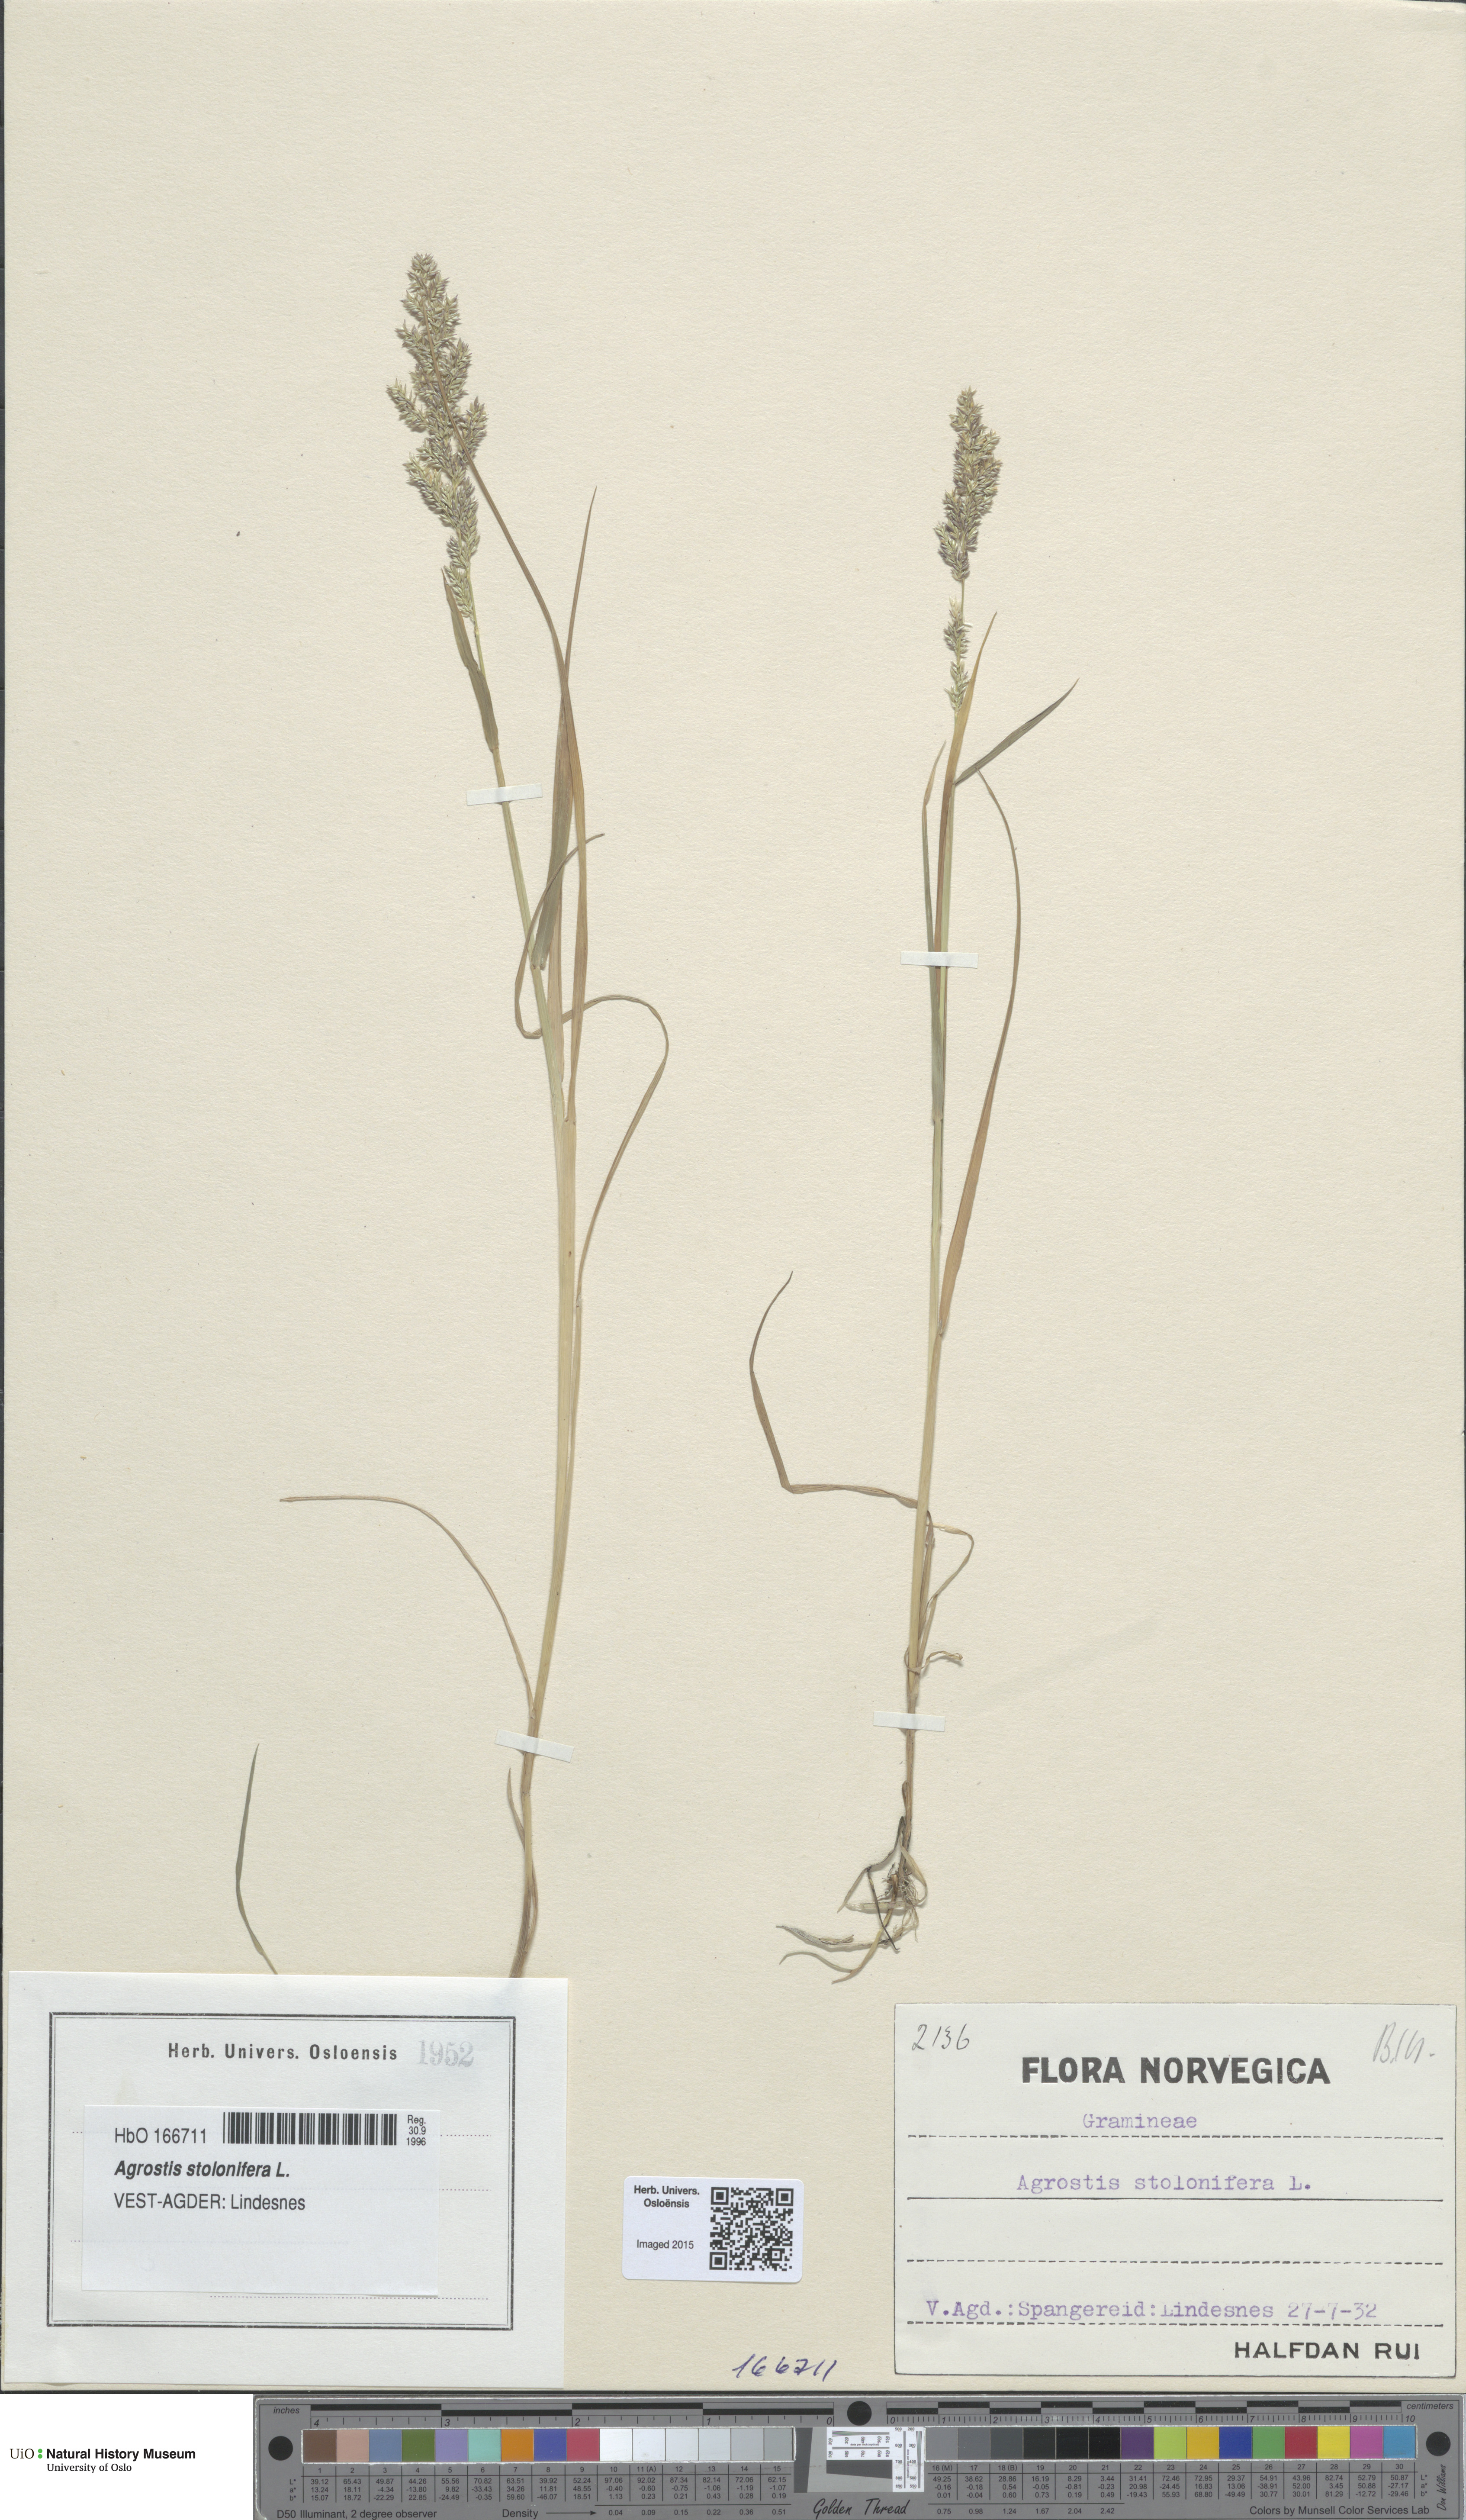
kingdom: Plantae
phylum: Tracheophyta
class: Liliopsida
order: Poales
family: Poaceae
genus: Agrostis
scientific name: Agrostis stolonifera
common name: Creeping bentgrass
